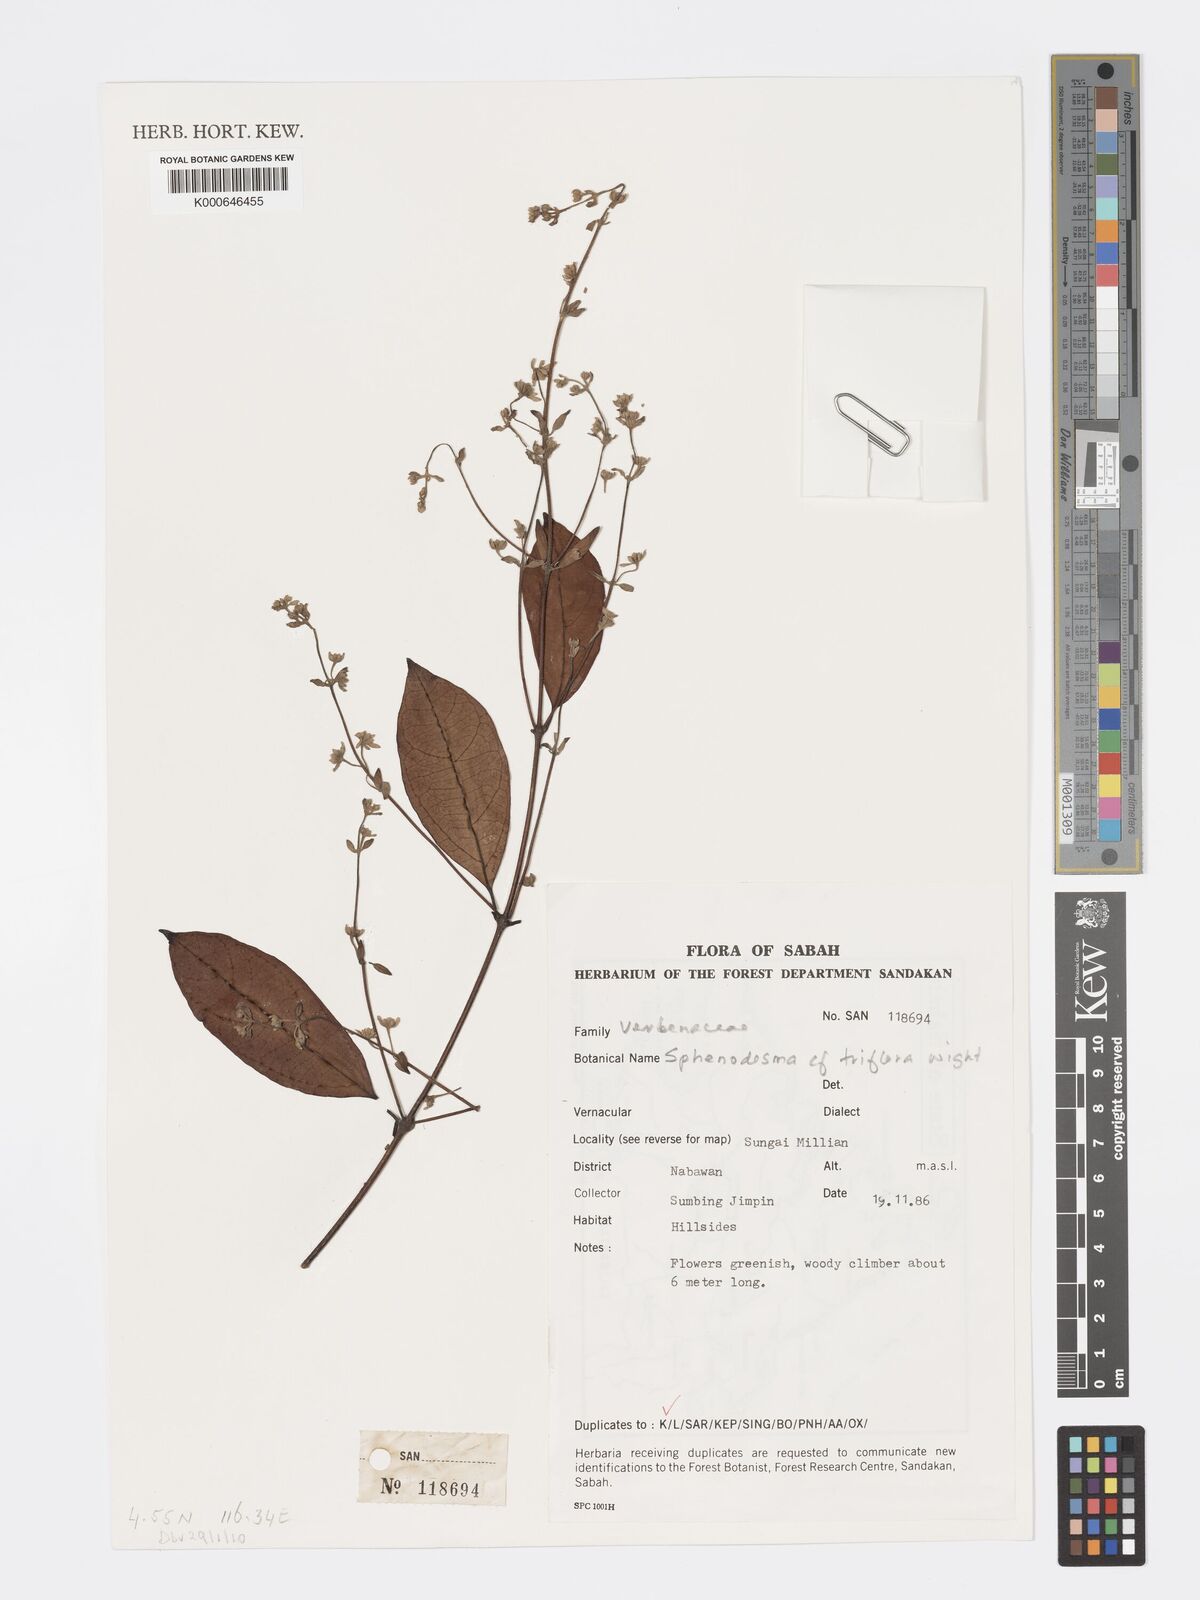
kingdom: Plantae
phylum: Tracheophyta
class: Magnoliopsida
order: Lamiales
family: Lamiaceae
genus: Sphenodesme
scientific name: Sphenodesme
